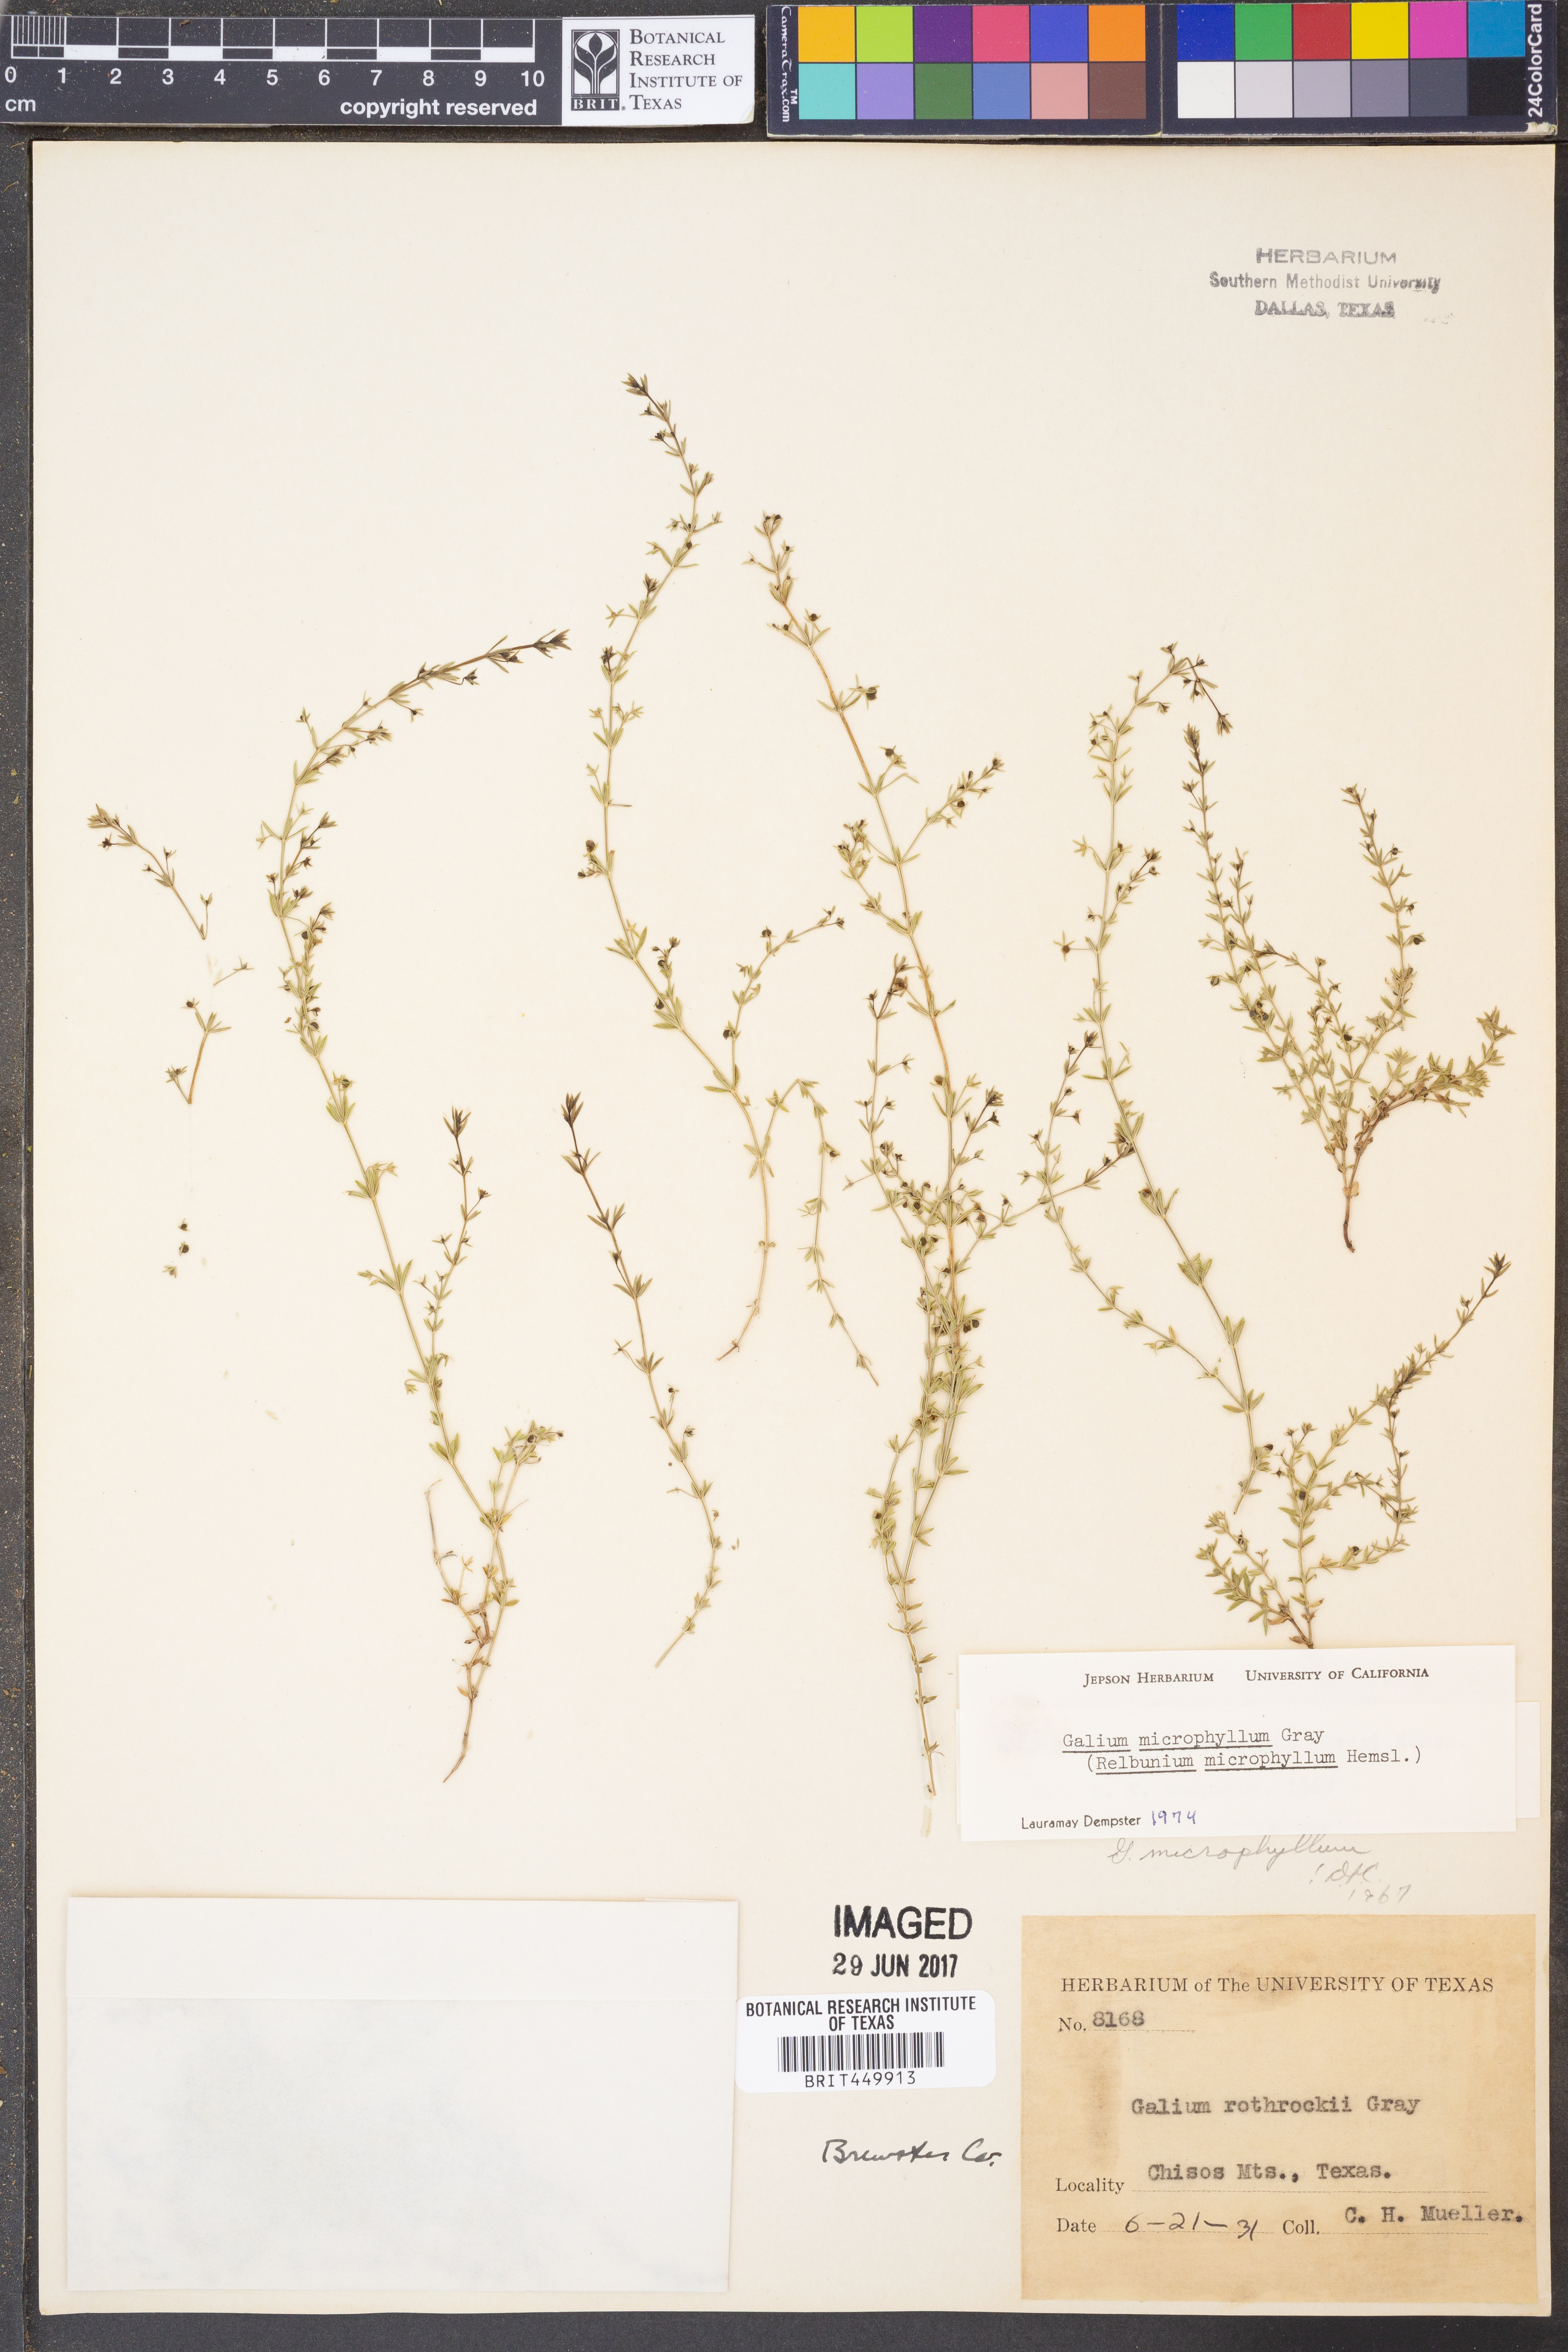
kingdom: Plantae
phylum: Tracheophyta
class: Magnoliopsida
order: Gentianales
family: Rubiaceae
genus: Galium
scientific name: Galium microphyllum
